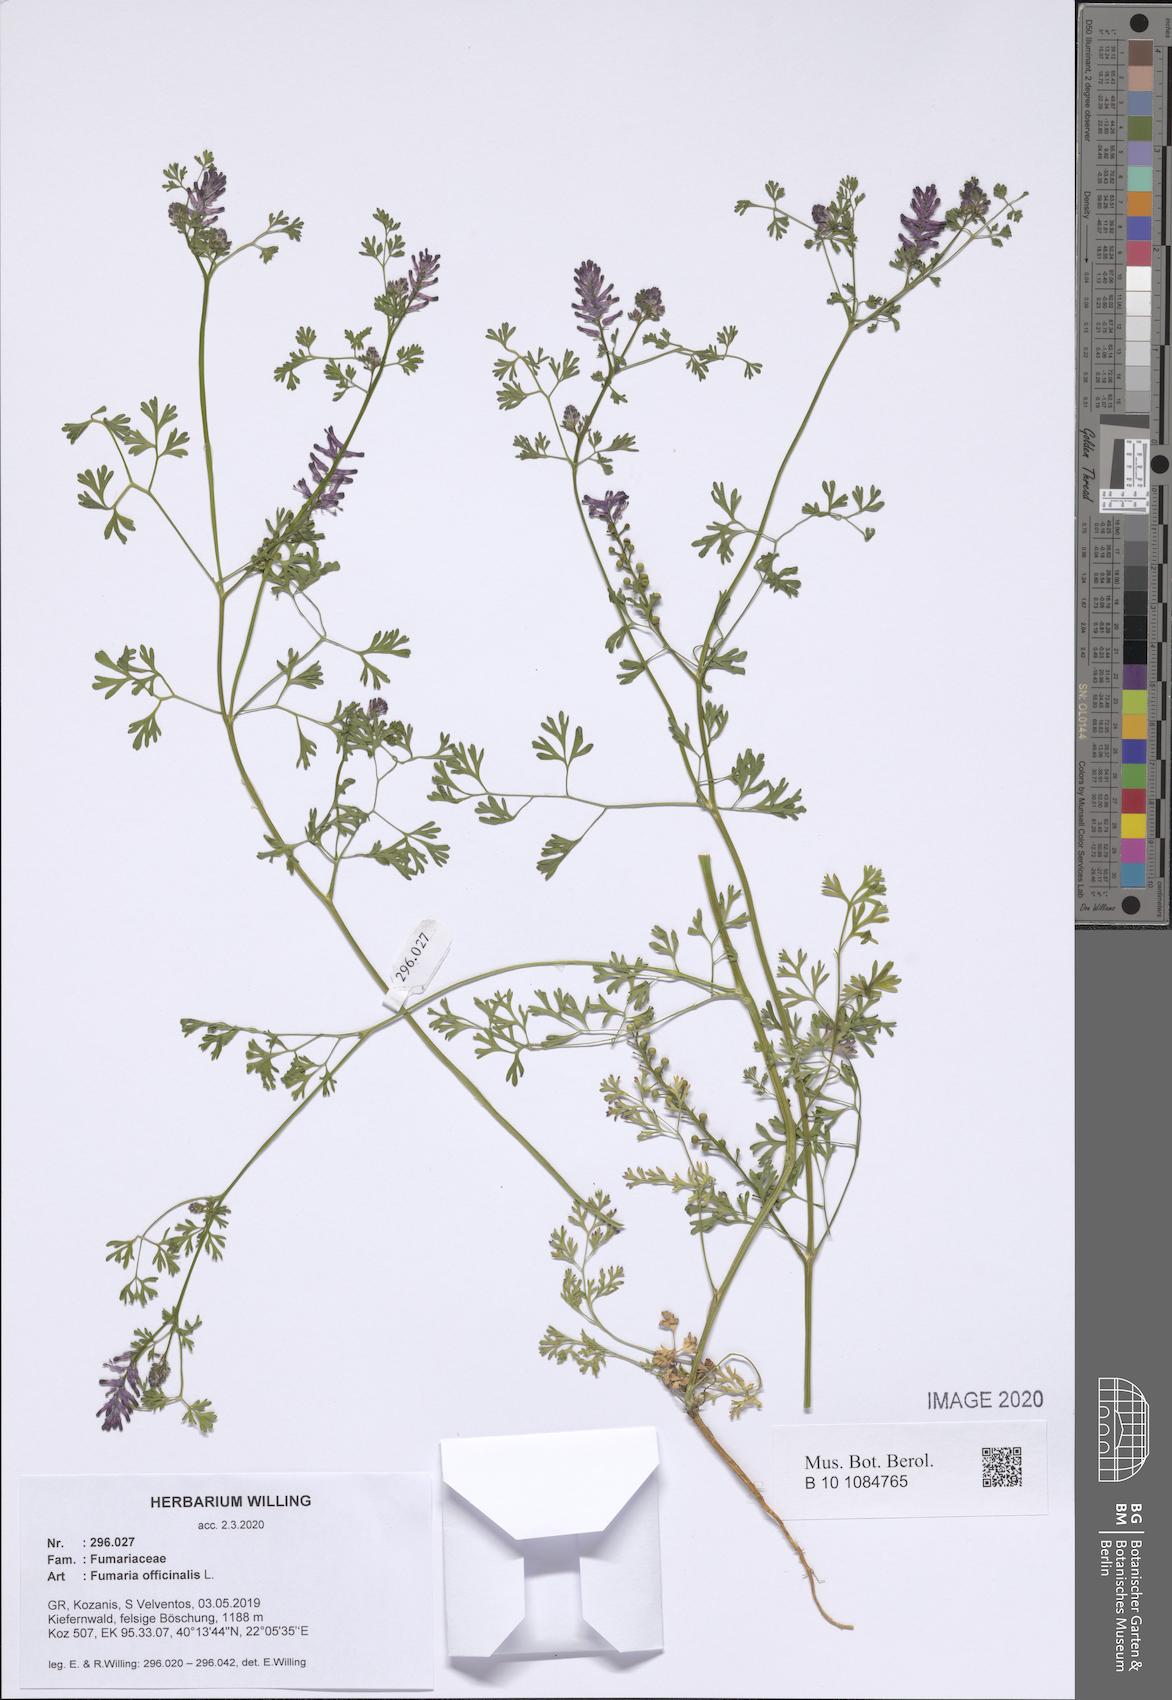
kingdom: Plantae
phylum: Tracheophyta
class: Magnoliopsida
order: Ranunculales
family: Papaveraceae
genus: Fumaria
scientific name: Fumaria officinalis
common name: Common fumitory
